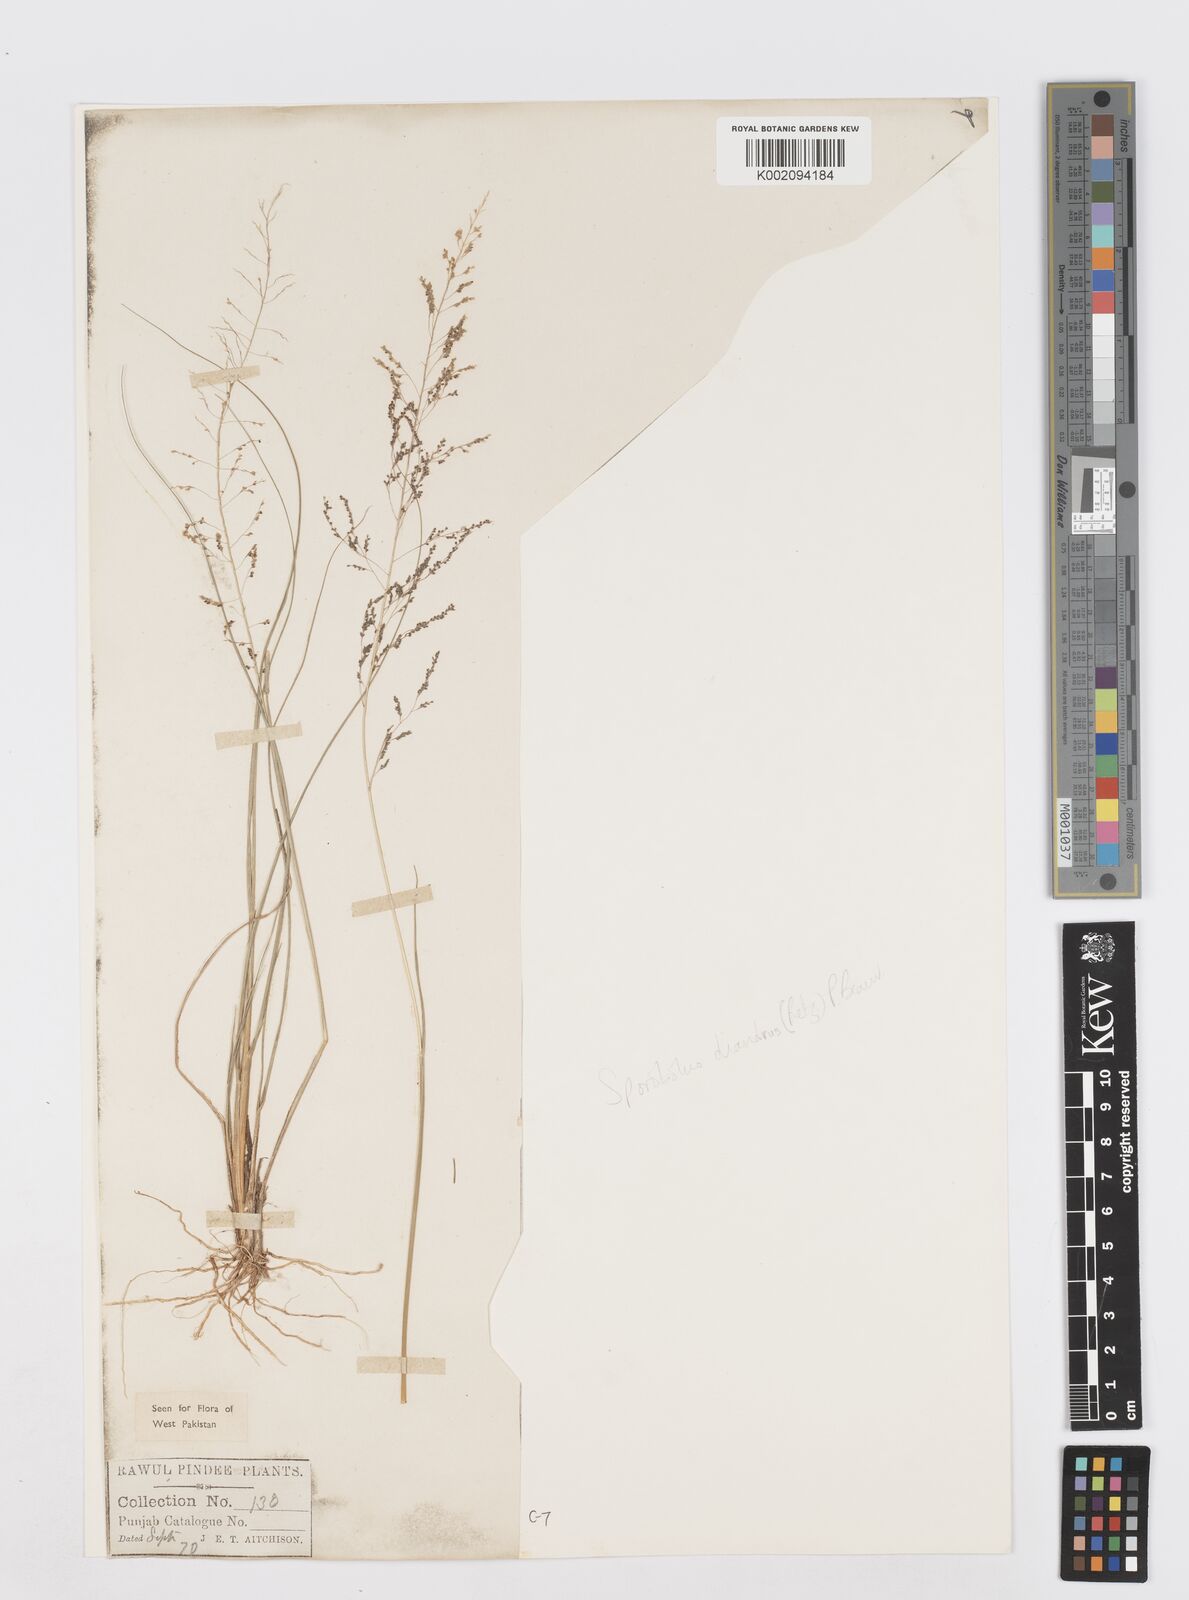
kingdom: Plantae
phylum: Tracheophyta
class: Liliopsida
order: Poales
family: Poaceae
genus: Sporobolus
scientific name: Sporobolus diandrus
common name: Tussock dropseed
